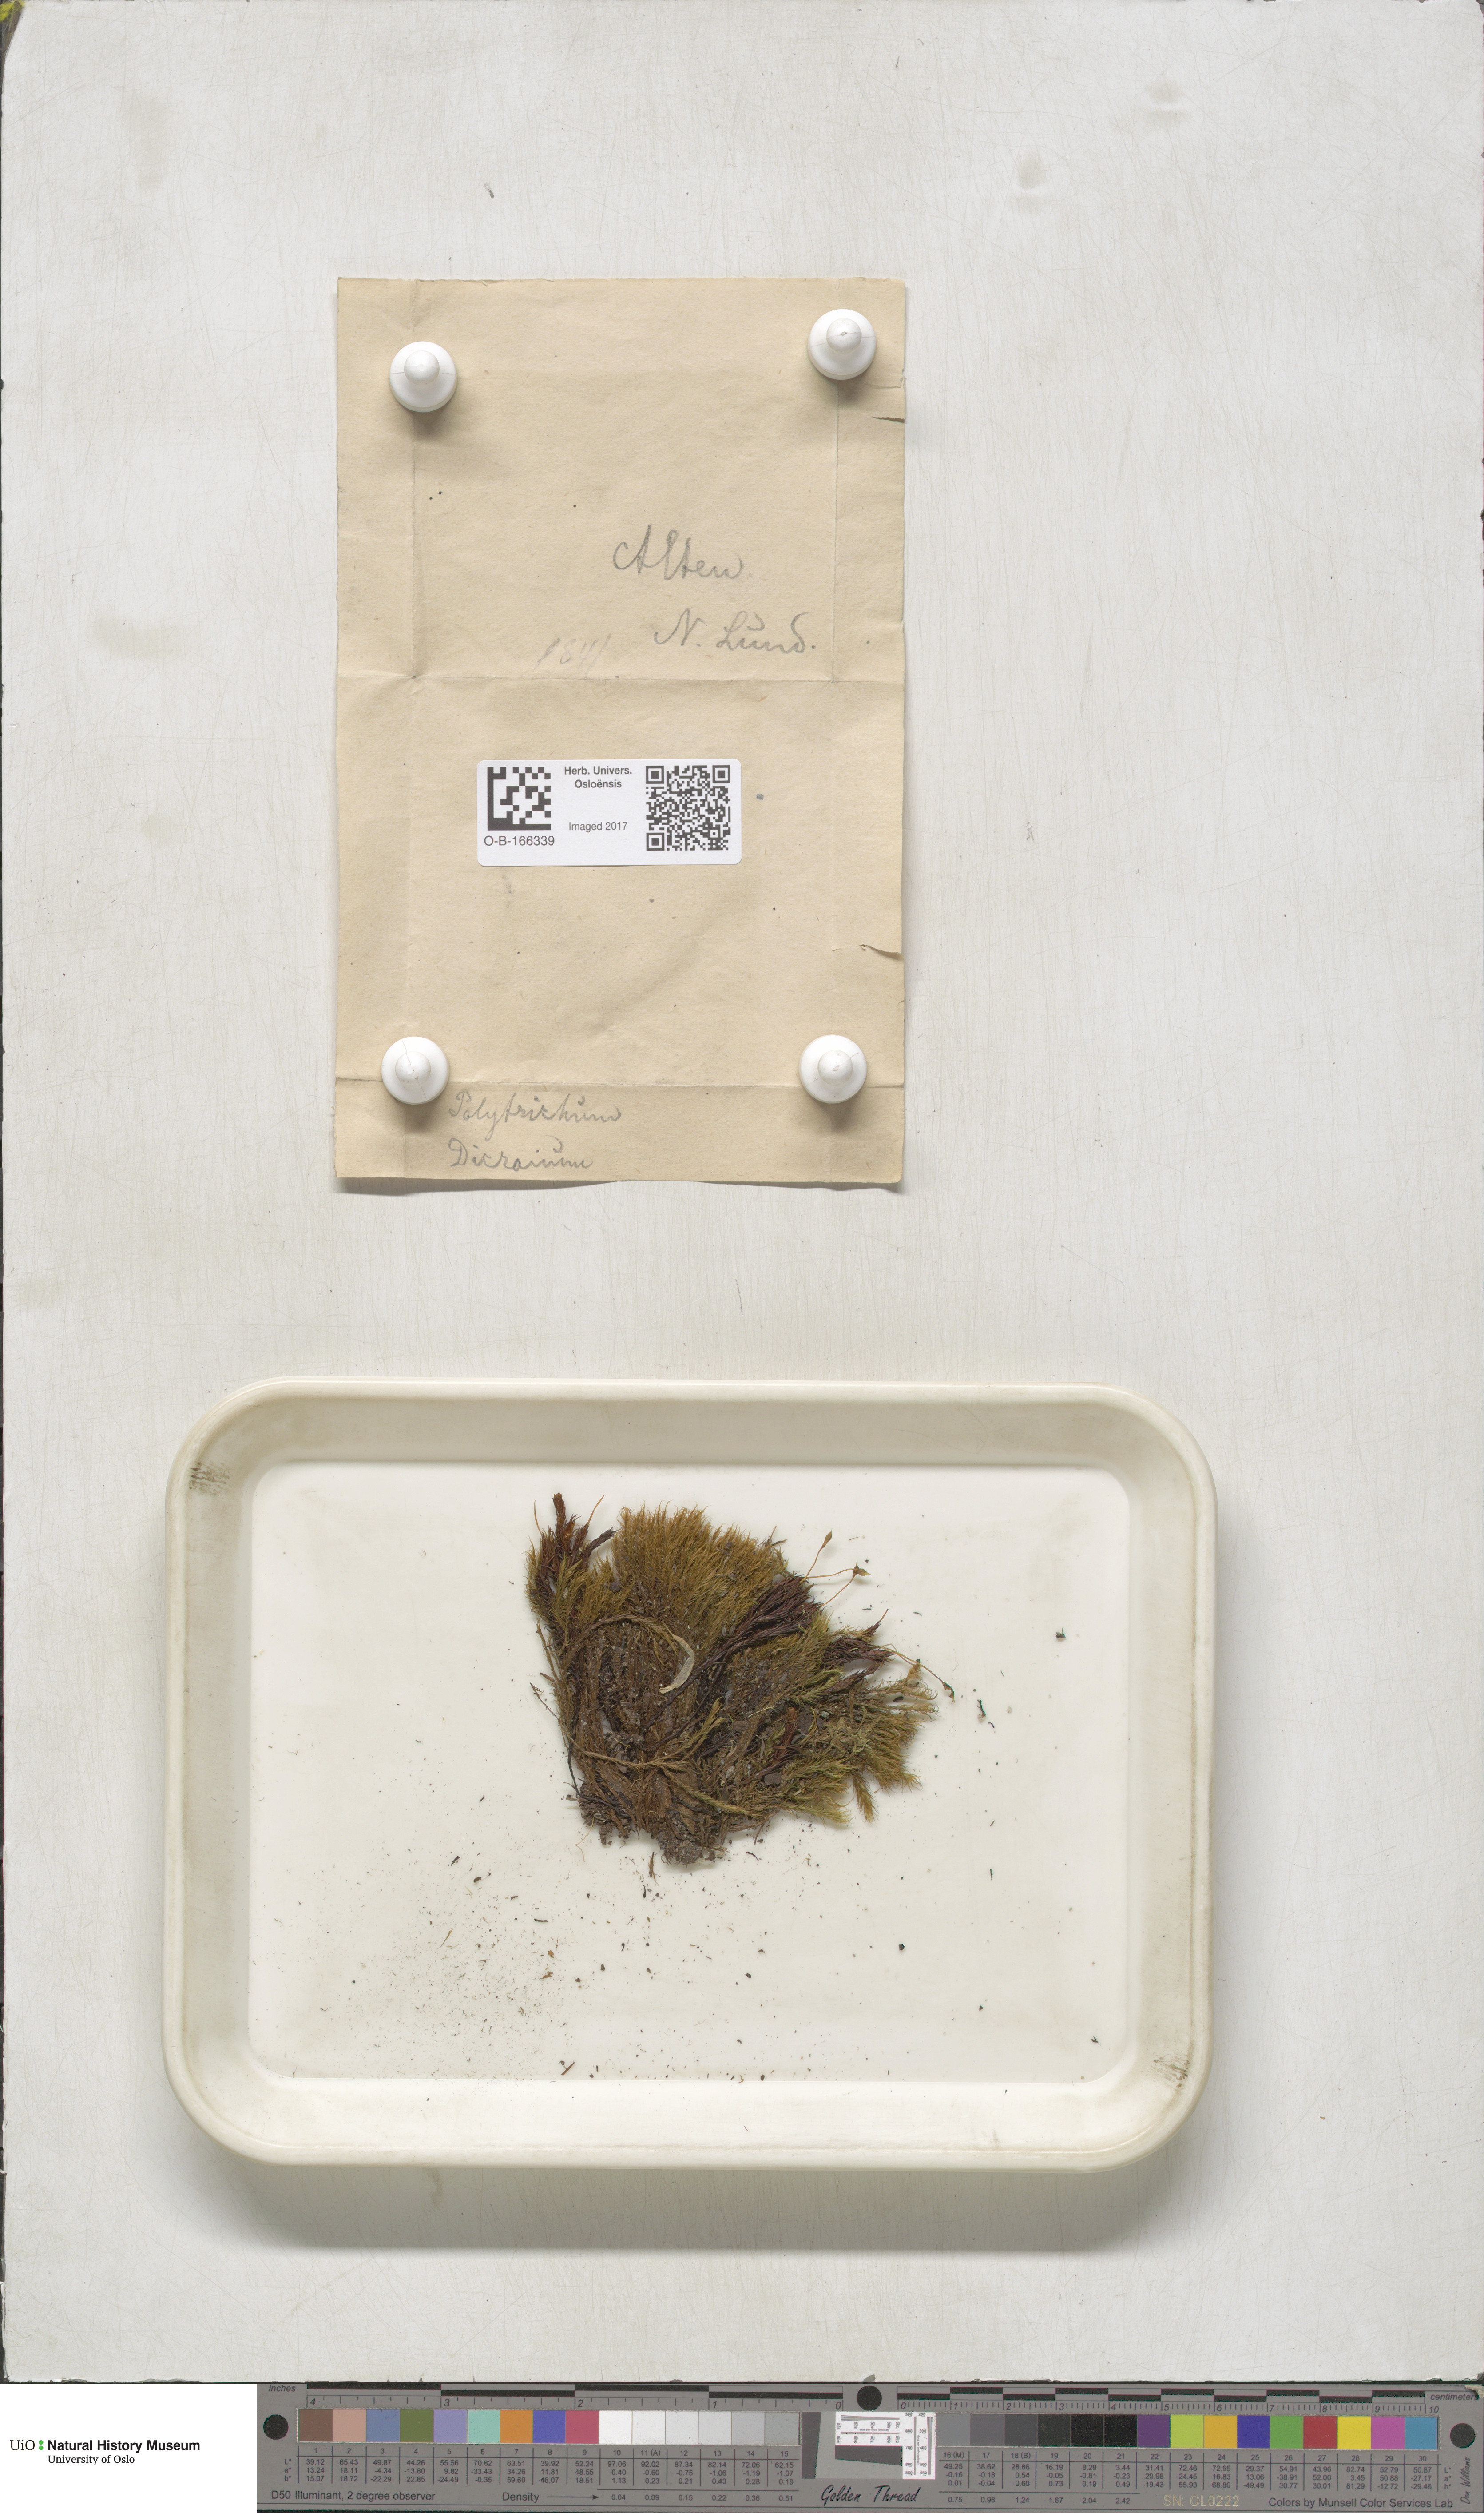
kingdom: Plantae
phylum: Bryophyta
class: Polytrichopsida
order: Polytrichales
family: Polytrichaceae
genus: Polytrichum
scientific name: Polytrichum
